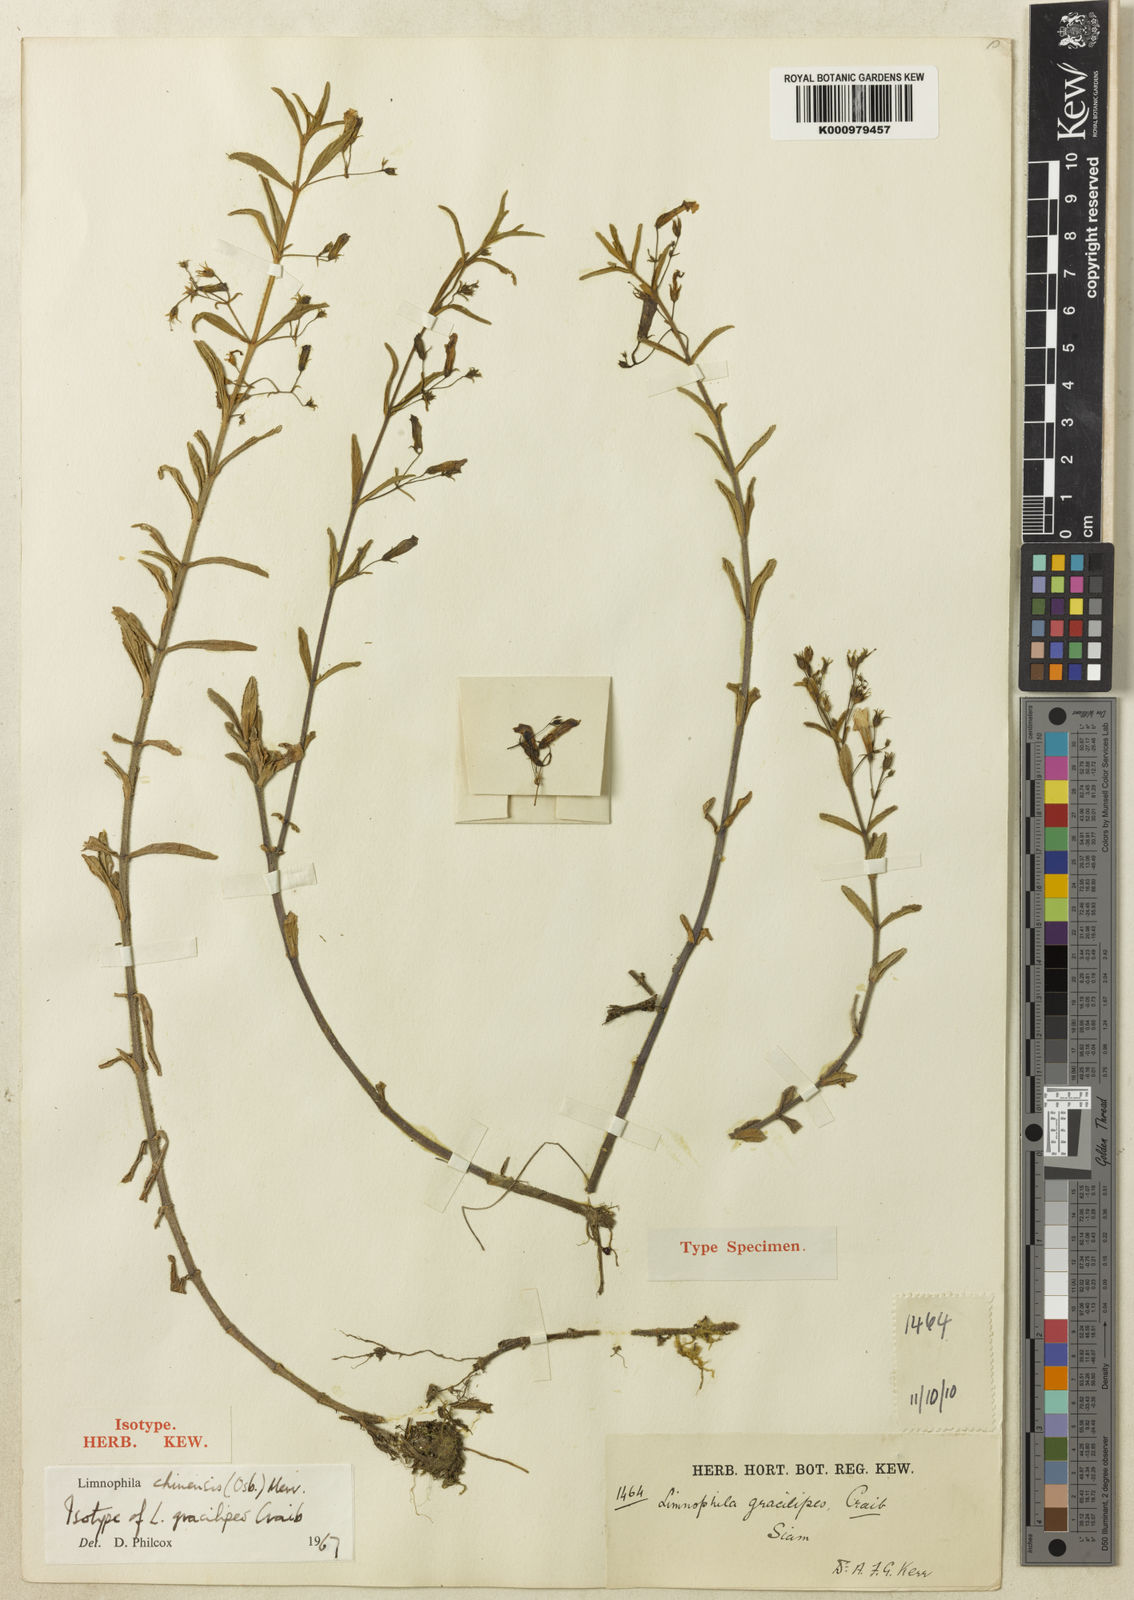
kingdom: Plantae
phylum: Tracheophyta
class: Magnoliopsida
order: Lamiales
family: Plantaginaceae
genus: Limnophila
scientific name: Limnophila chinensis
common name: Finger grass
